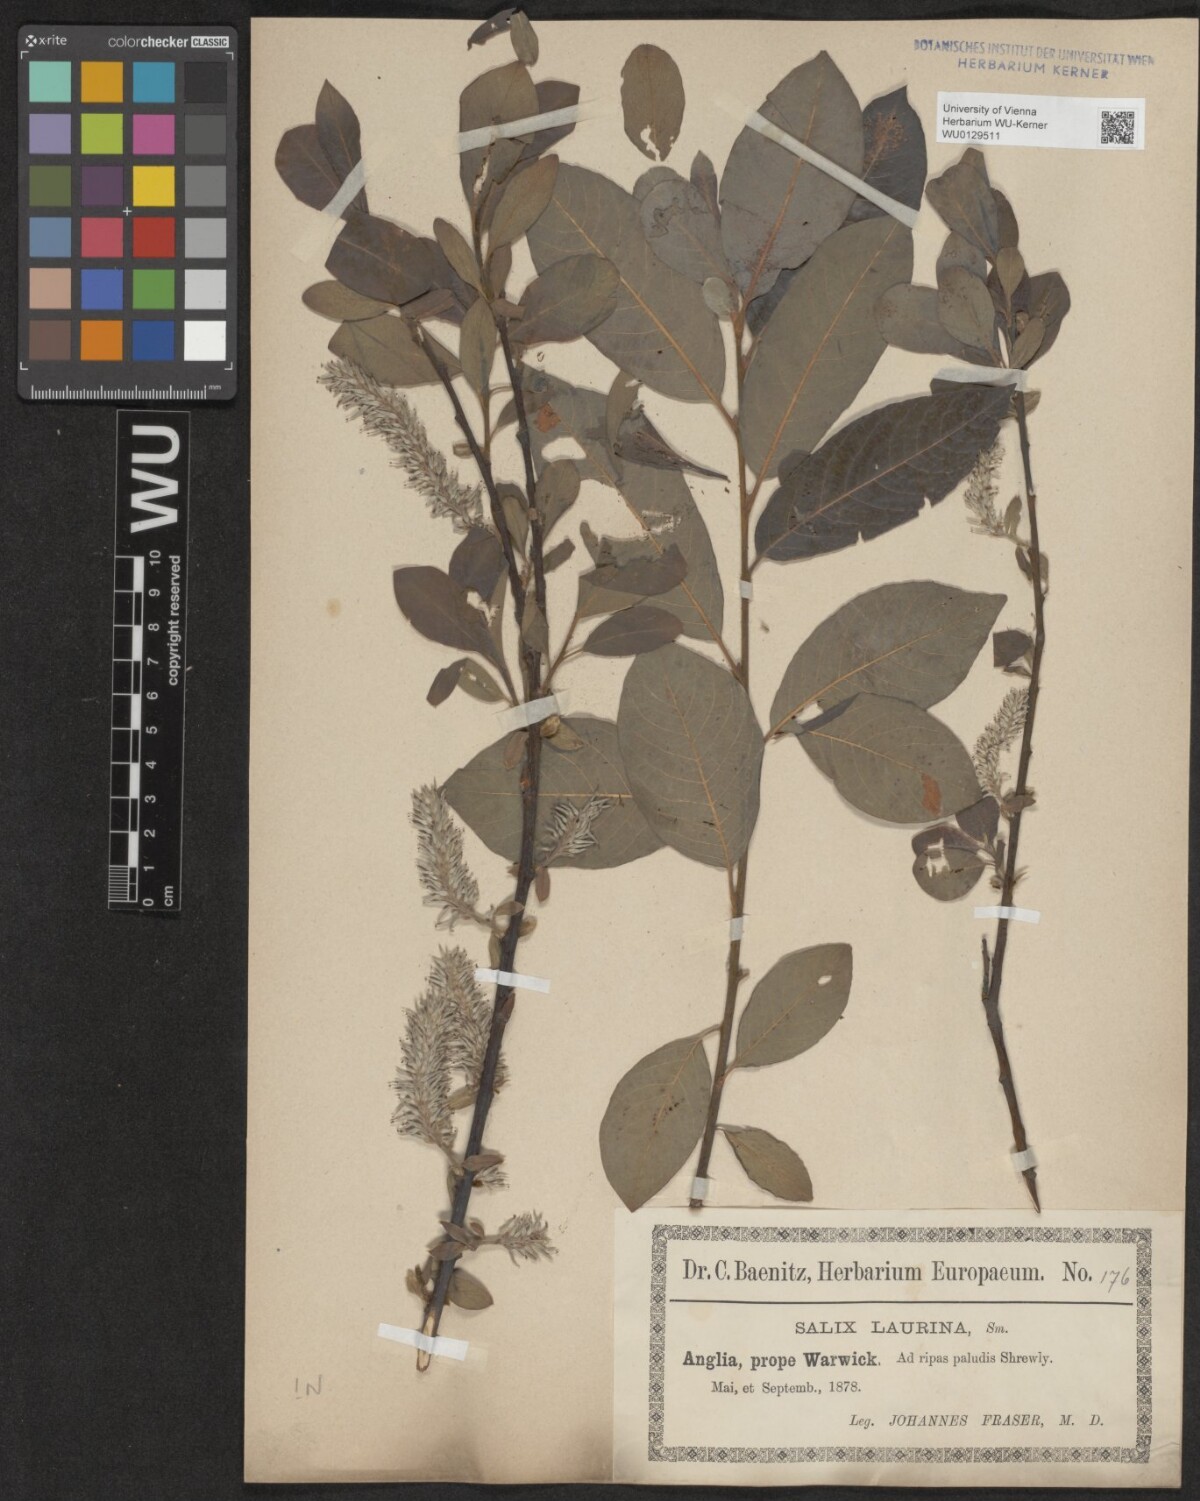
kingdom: Plantae
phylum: Tracheophyta
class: Magnoliopsida
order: Malpighiales
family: Salicaceae
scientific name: Salicaceae
